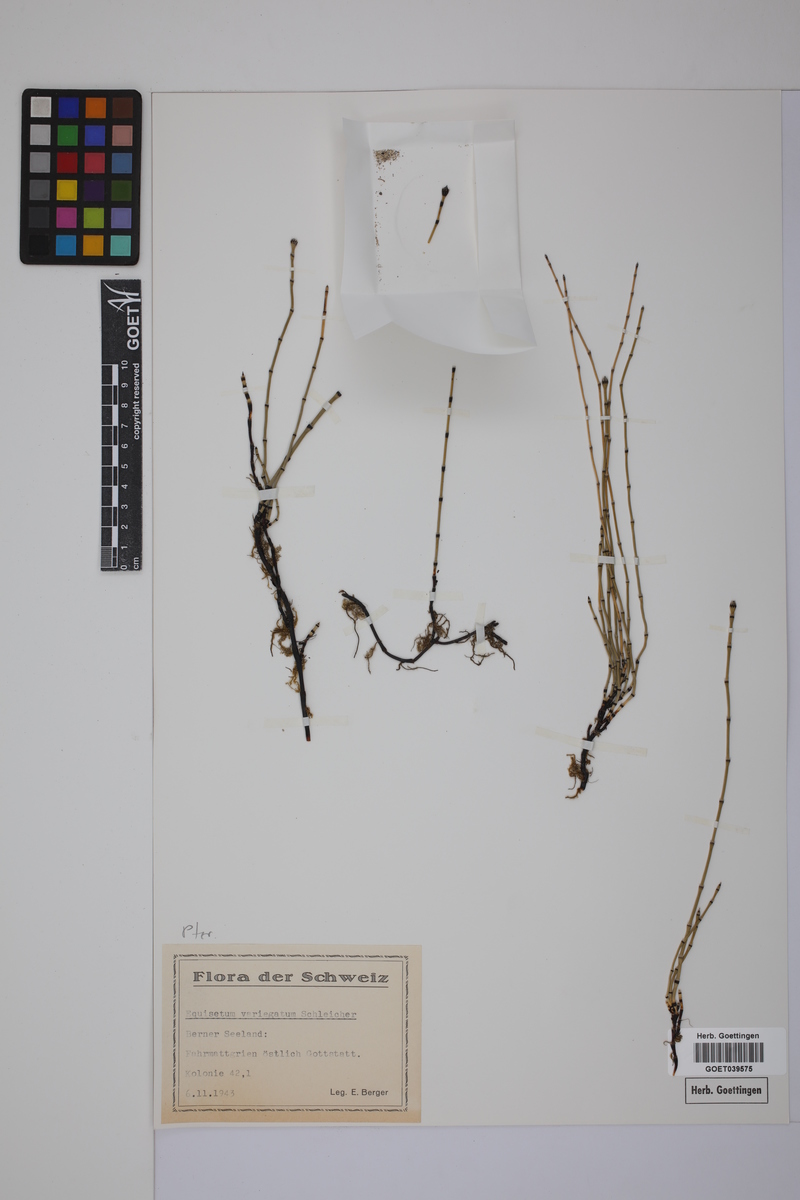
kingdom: Plantae
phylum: Tracheophyta
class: Polypodiopsida
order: Equisetales
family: Equisetaceae
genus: Equisetum
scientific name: Equisetum variegatum
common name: Variegated horsetail
